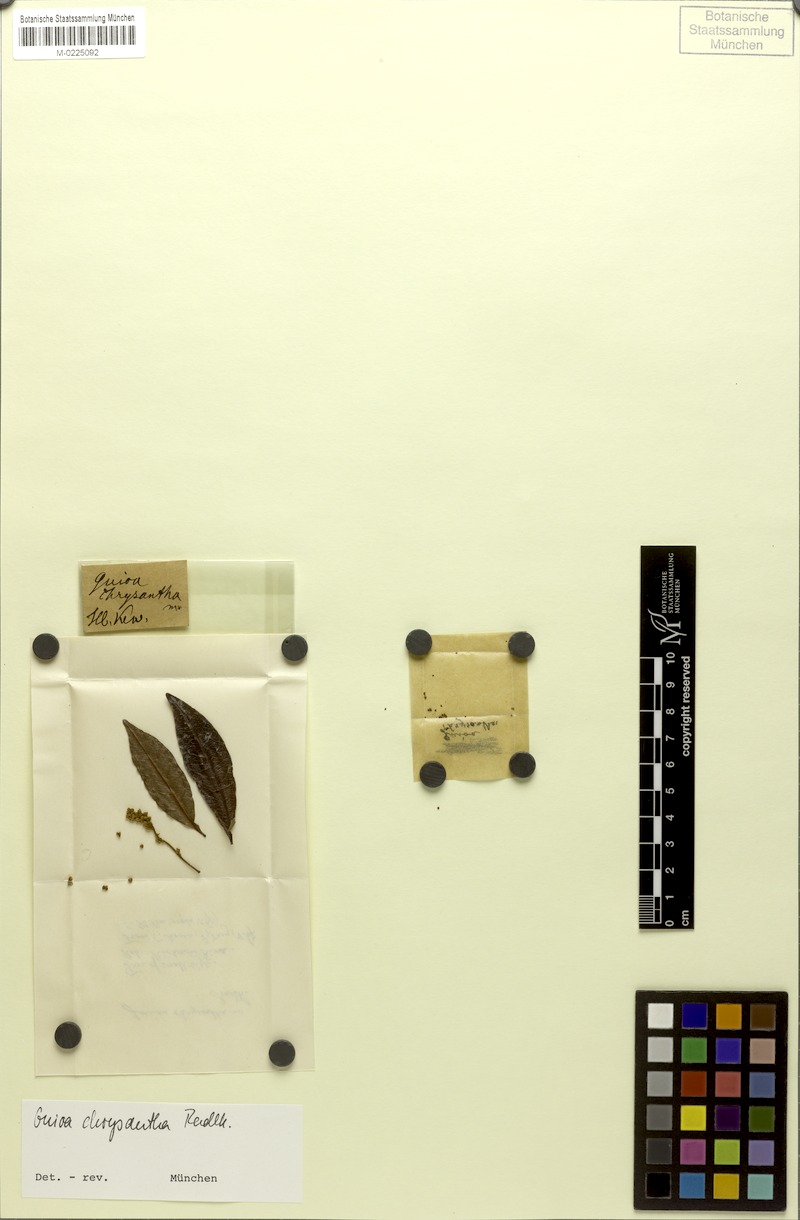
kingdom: Plantae
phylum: Tracheophyta
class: Magnoliopsida
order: Sapindales
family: Sapindaceae
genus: Guioa
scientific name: Guioa semiglauca
